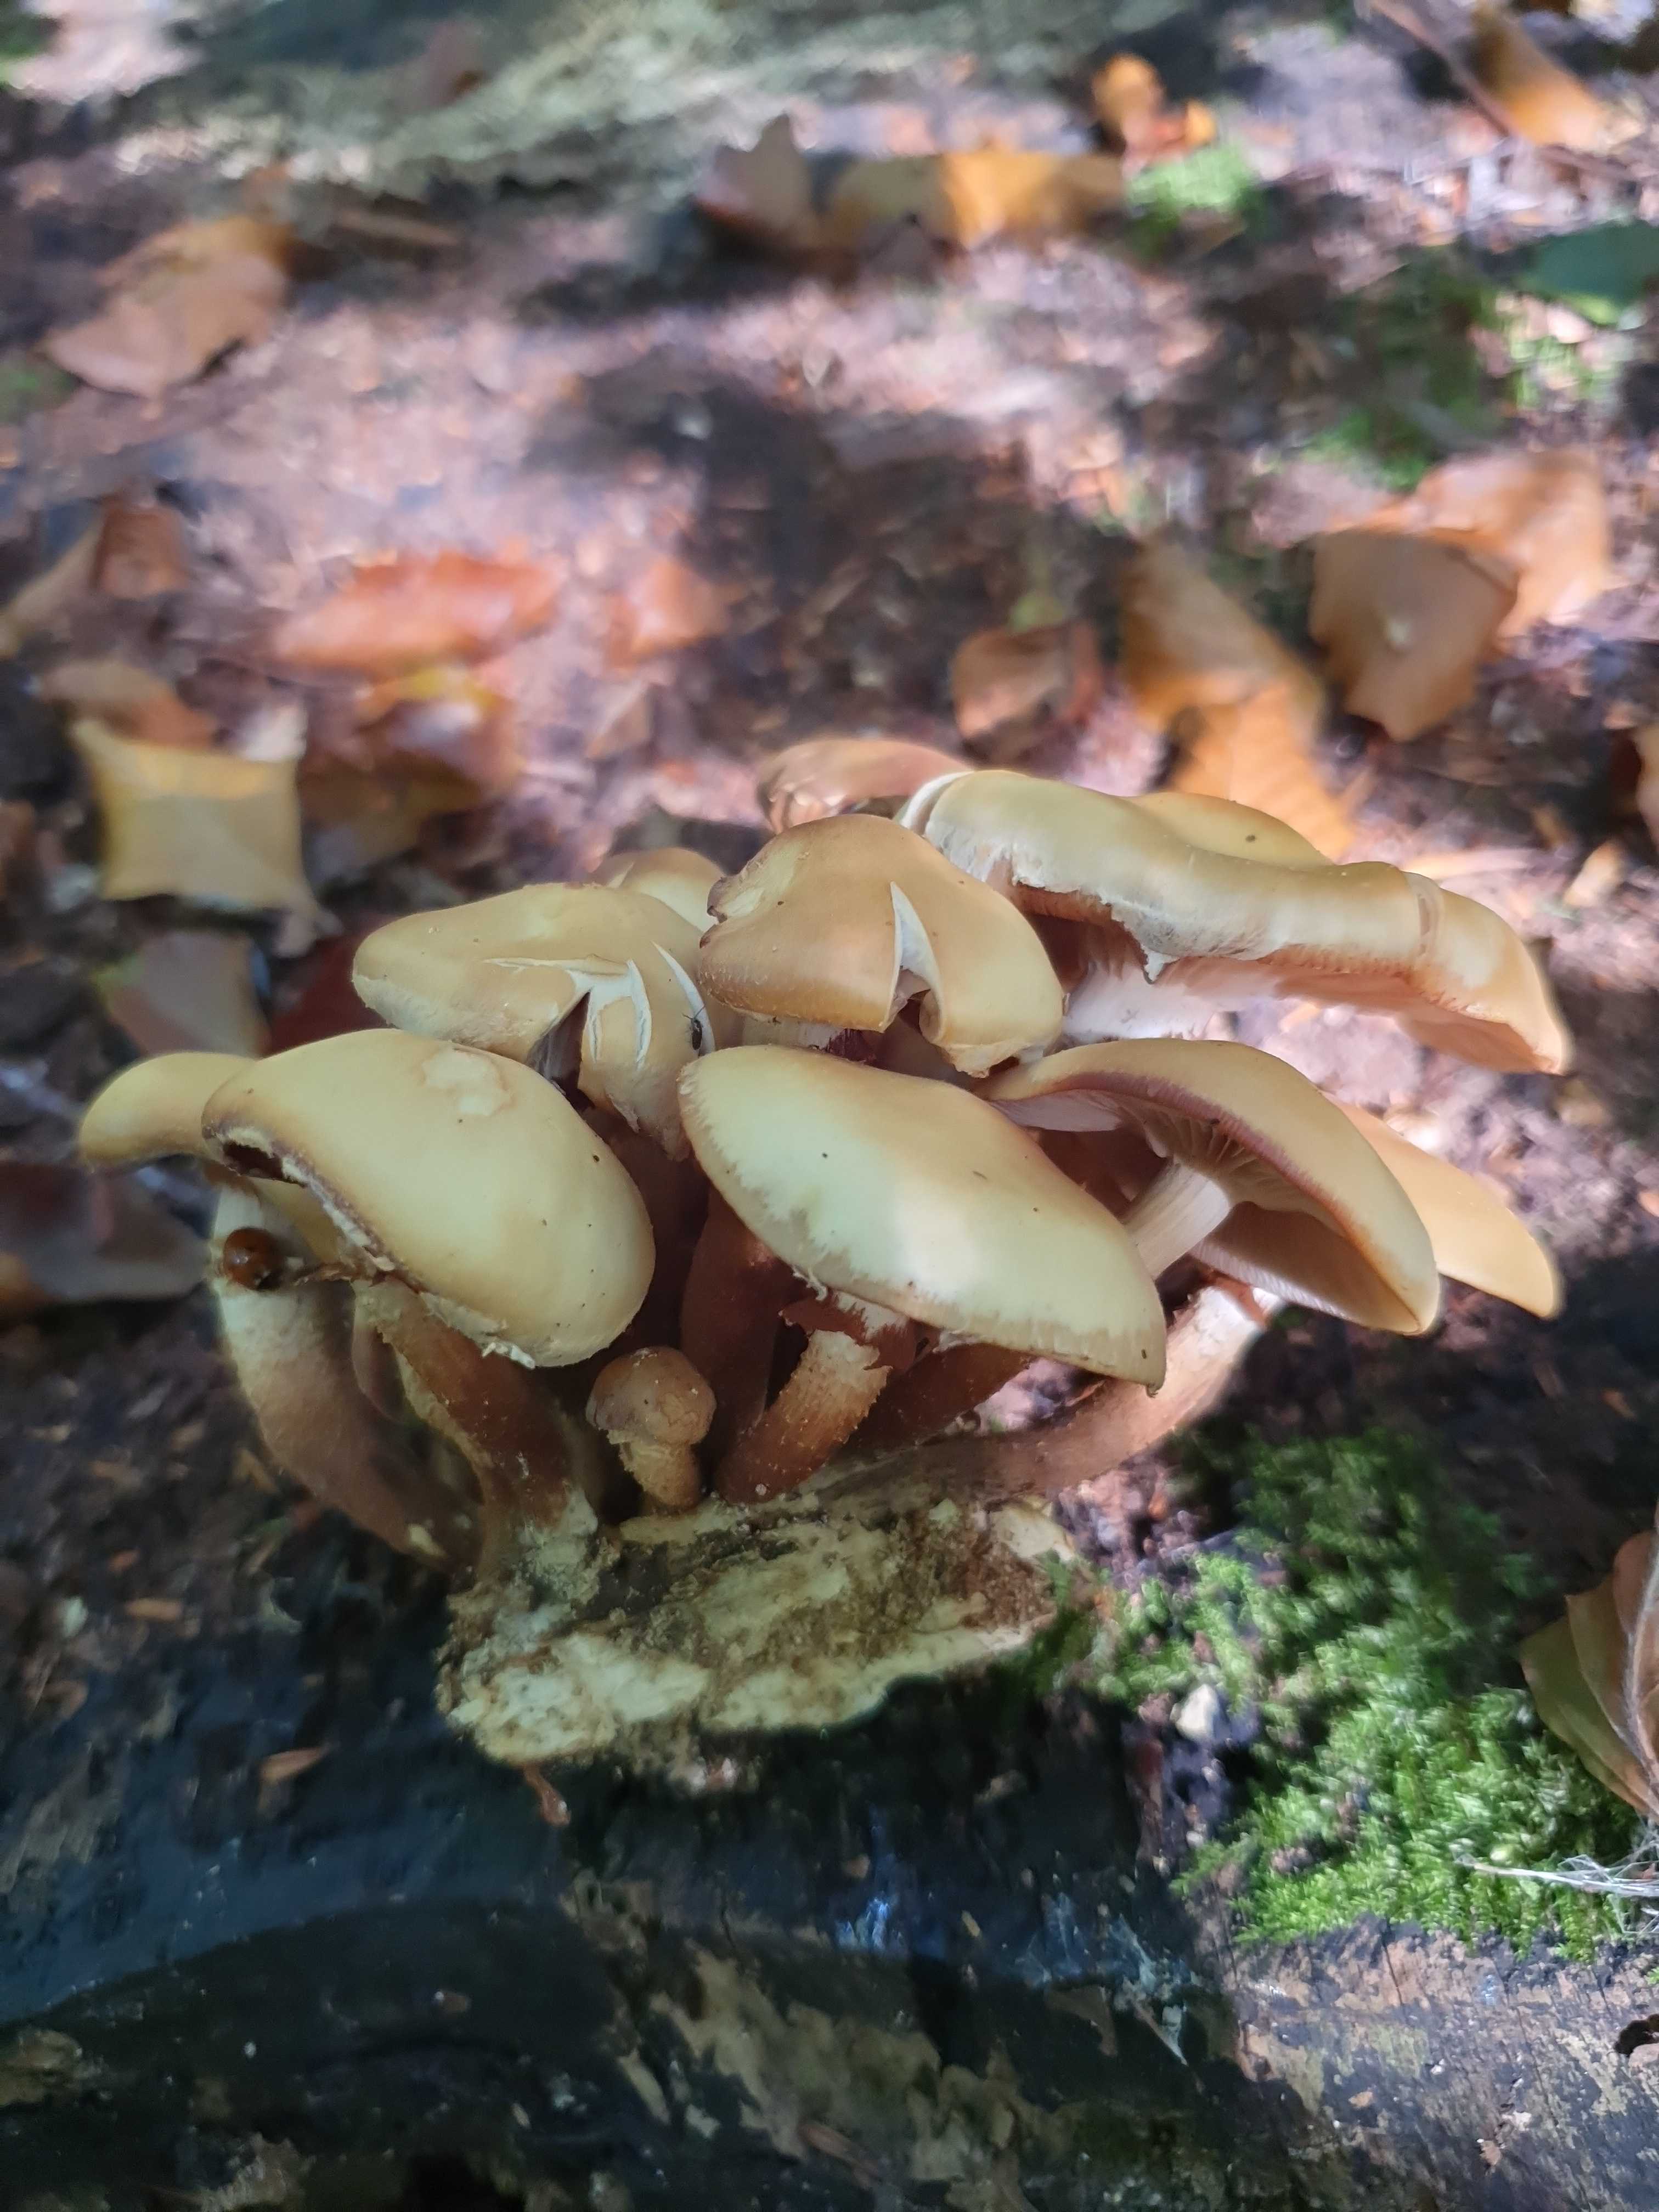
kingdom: Fungi
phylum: Basidiomycota
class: Agaricomycetes
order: Agaricales
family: Strophariaceae
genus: Kuehneromyces
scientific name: Kuehneromyces mutabilis
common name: foranderlig skælhat
